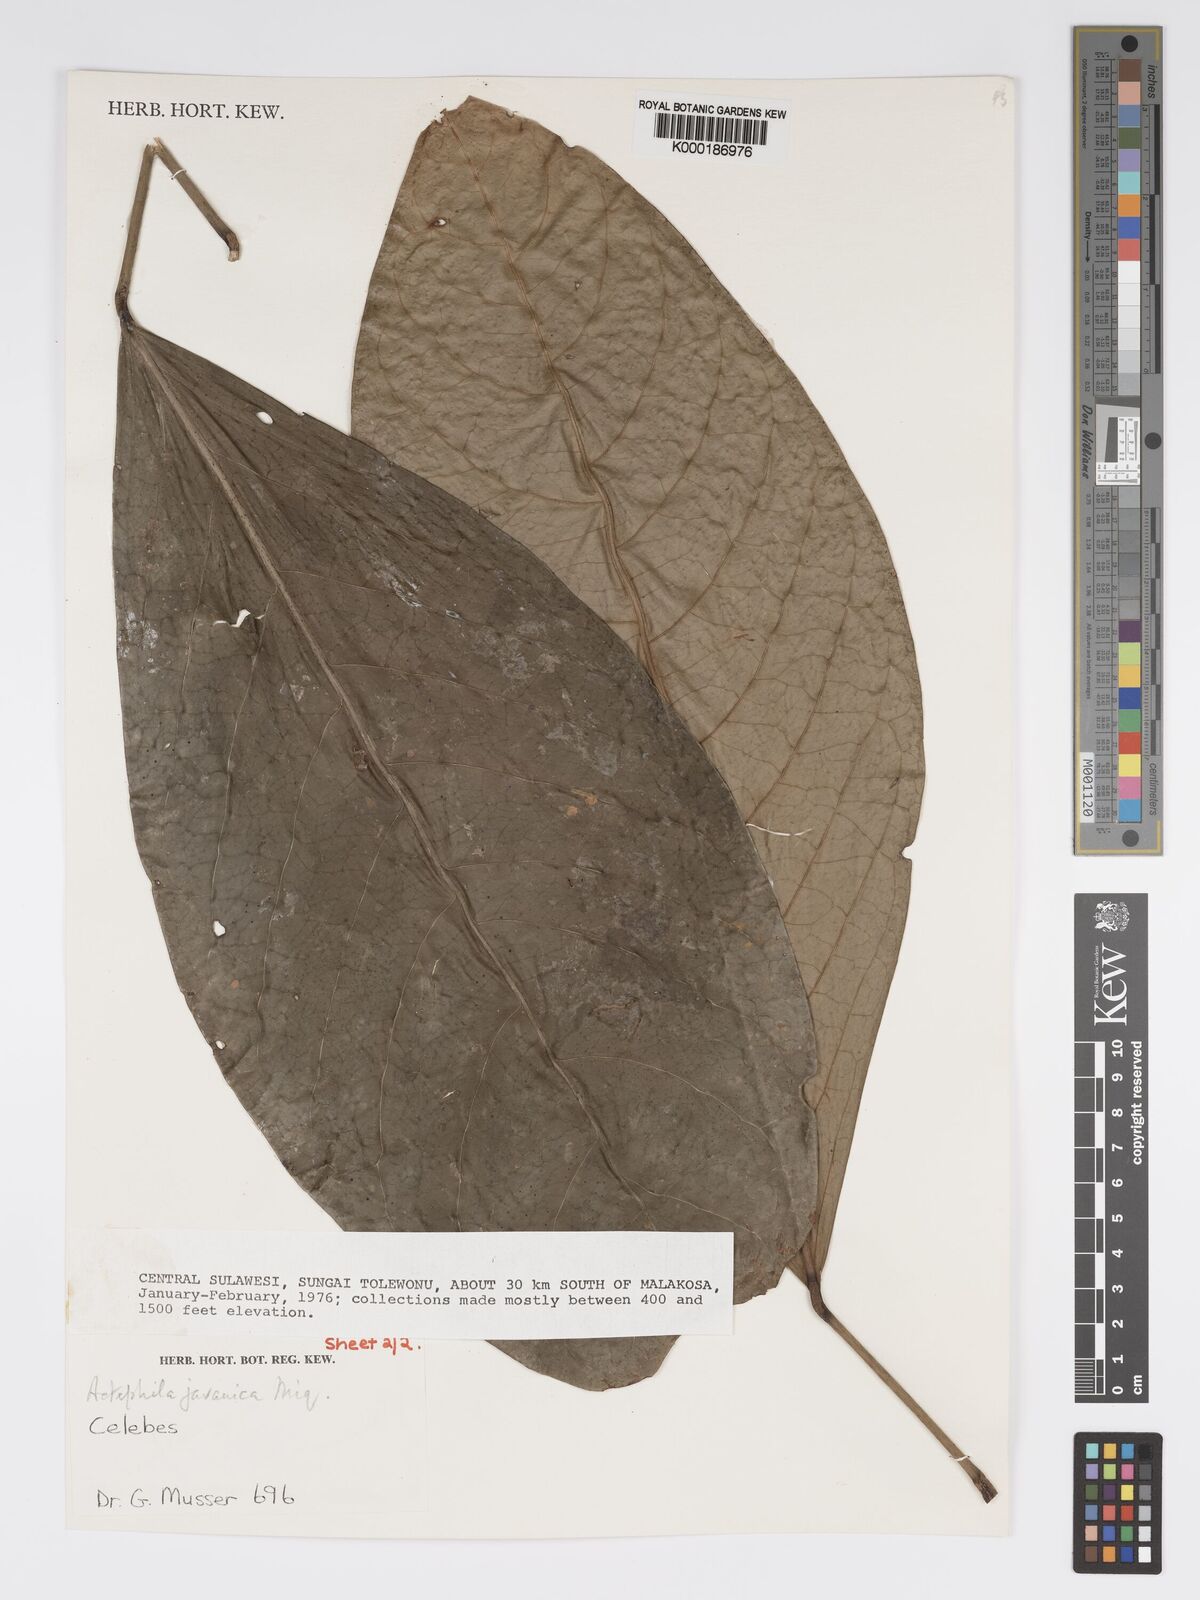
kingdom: Plantae
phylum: Tracheophyta
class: Magnoliopsida
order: Malpighiales
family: Phyllanthaceae
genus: Actephila
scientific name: Actephila
